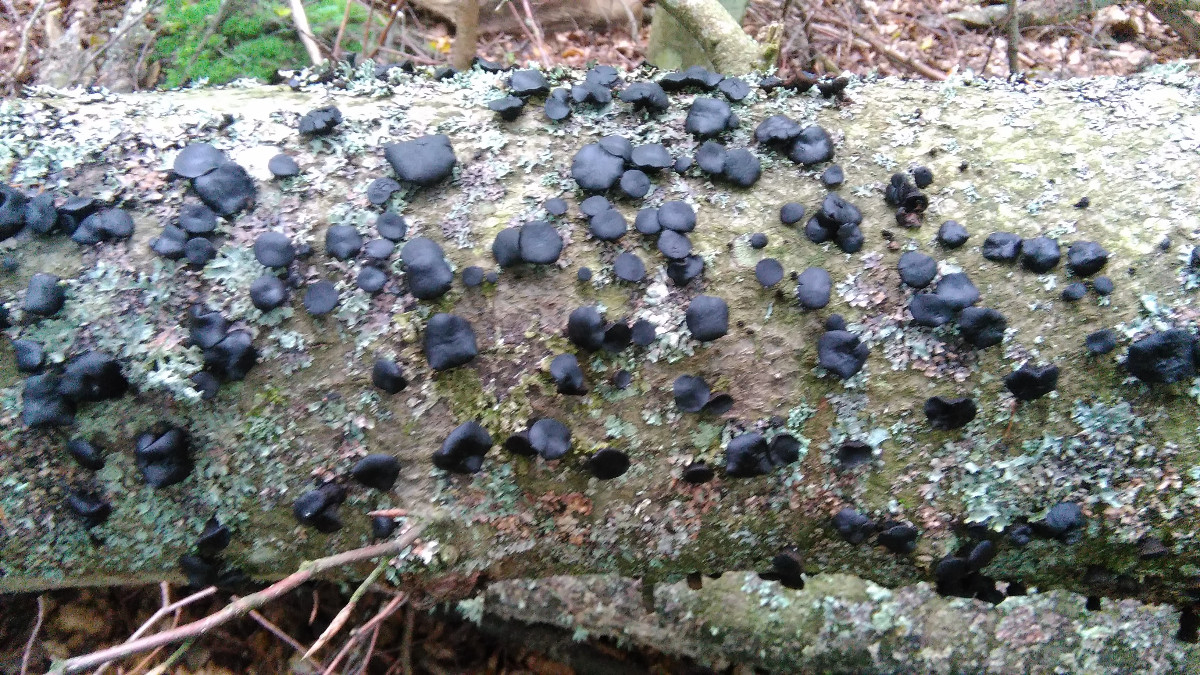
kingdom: Fungi
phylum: Ascomycota
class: Leotiomycetes
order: Phacidiales
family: Phacidiaceae
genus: Bulgaria
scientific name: Bulgaria inquinans
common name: afsmittende topsvamp
